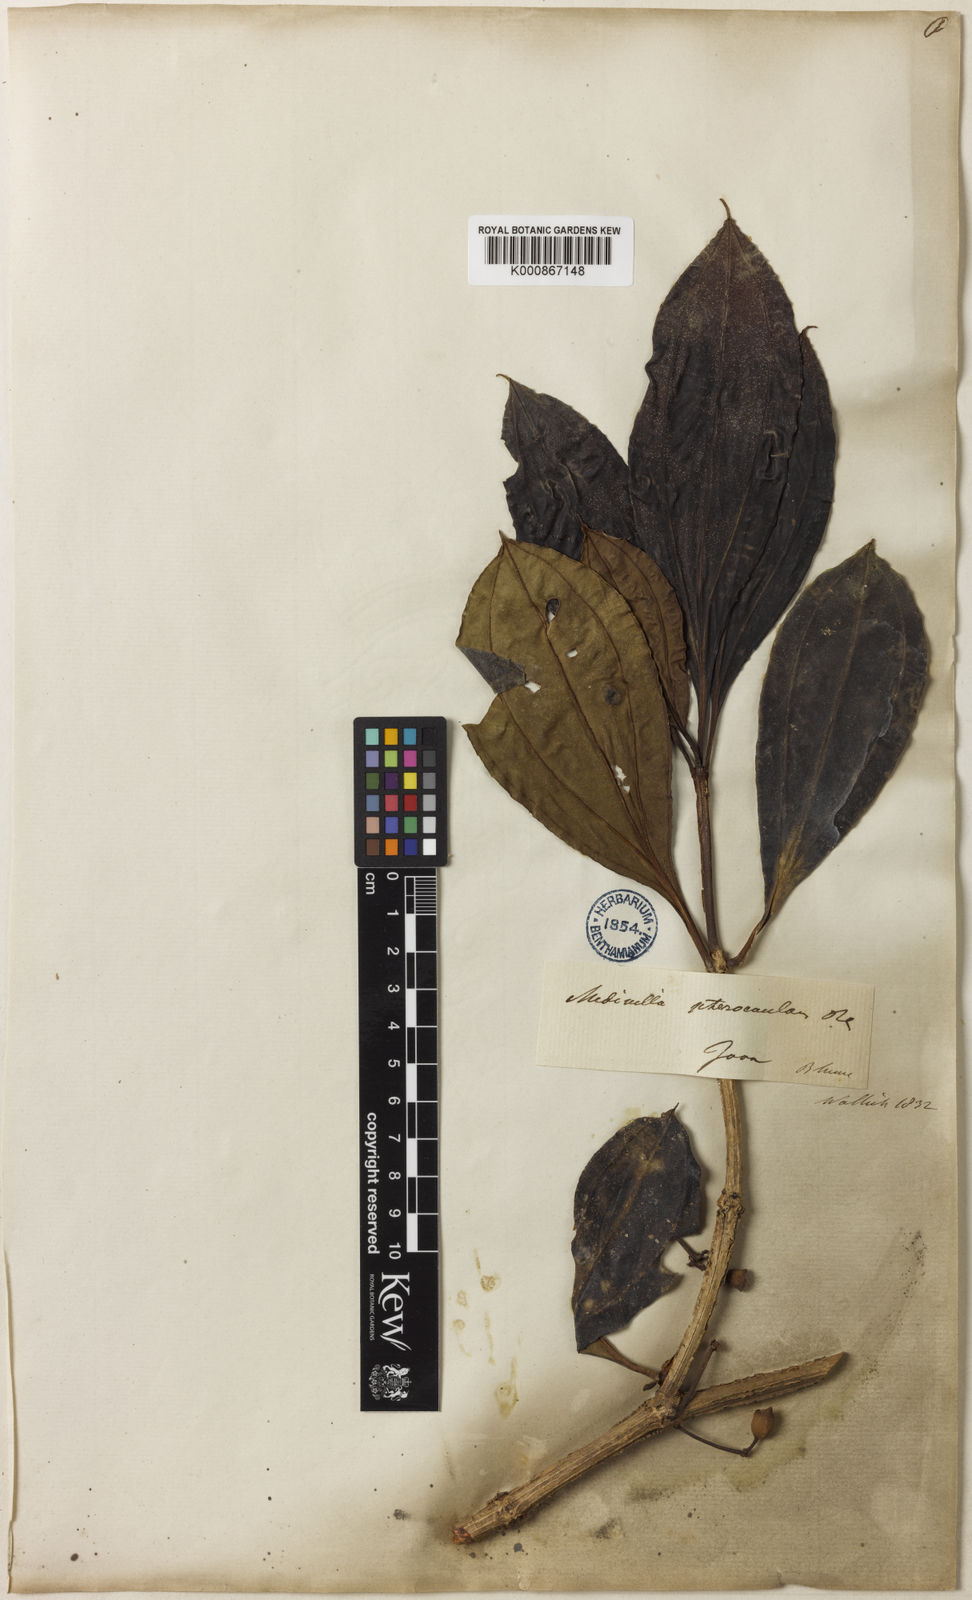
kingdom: Plantae
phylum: Tracheophyta
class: Magnoliopsida
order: Myrtales
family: Melastomataceae
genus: Medinilla
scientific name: Medinilla pterocaula
